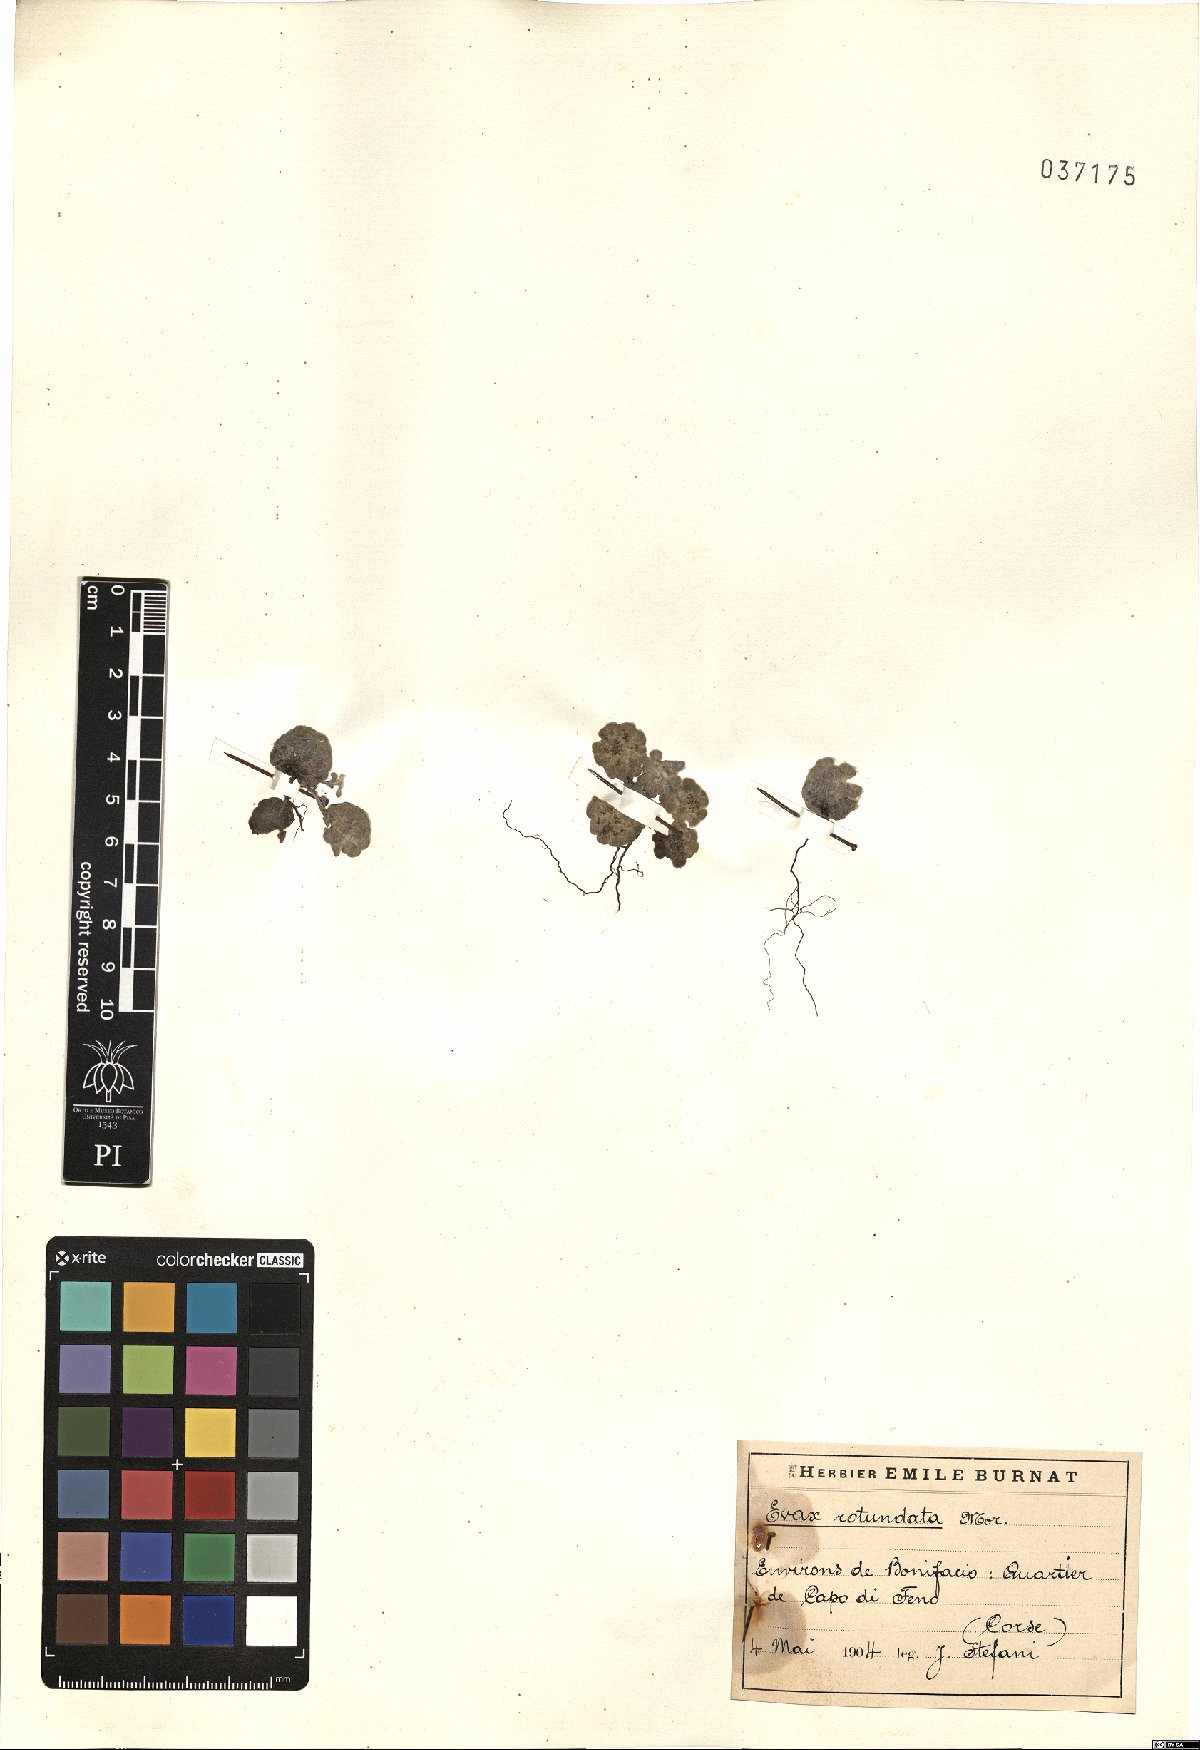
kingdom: Plantae
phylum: Tracheophyta
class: Magnoliopsida
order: Asterales
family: Asteraceae
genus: Filago
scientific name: Filago tyrrhenica
